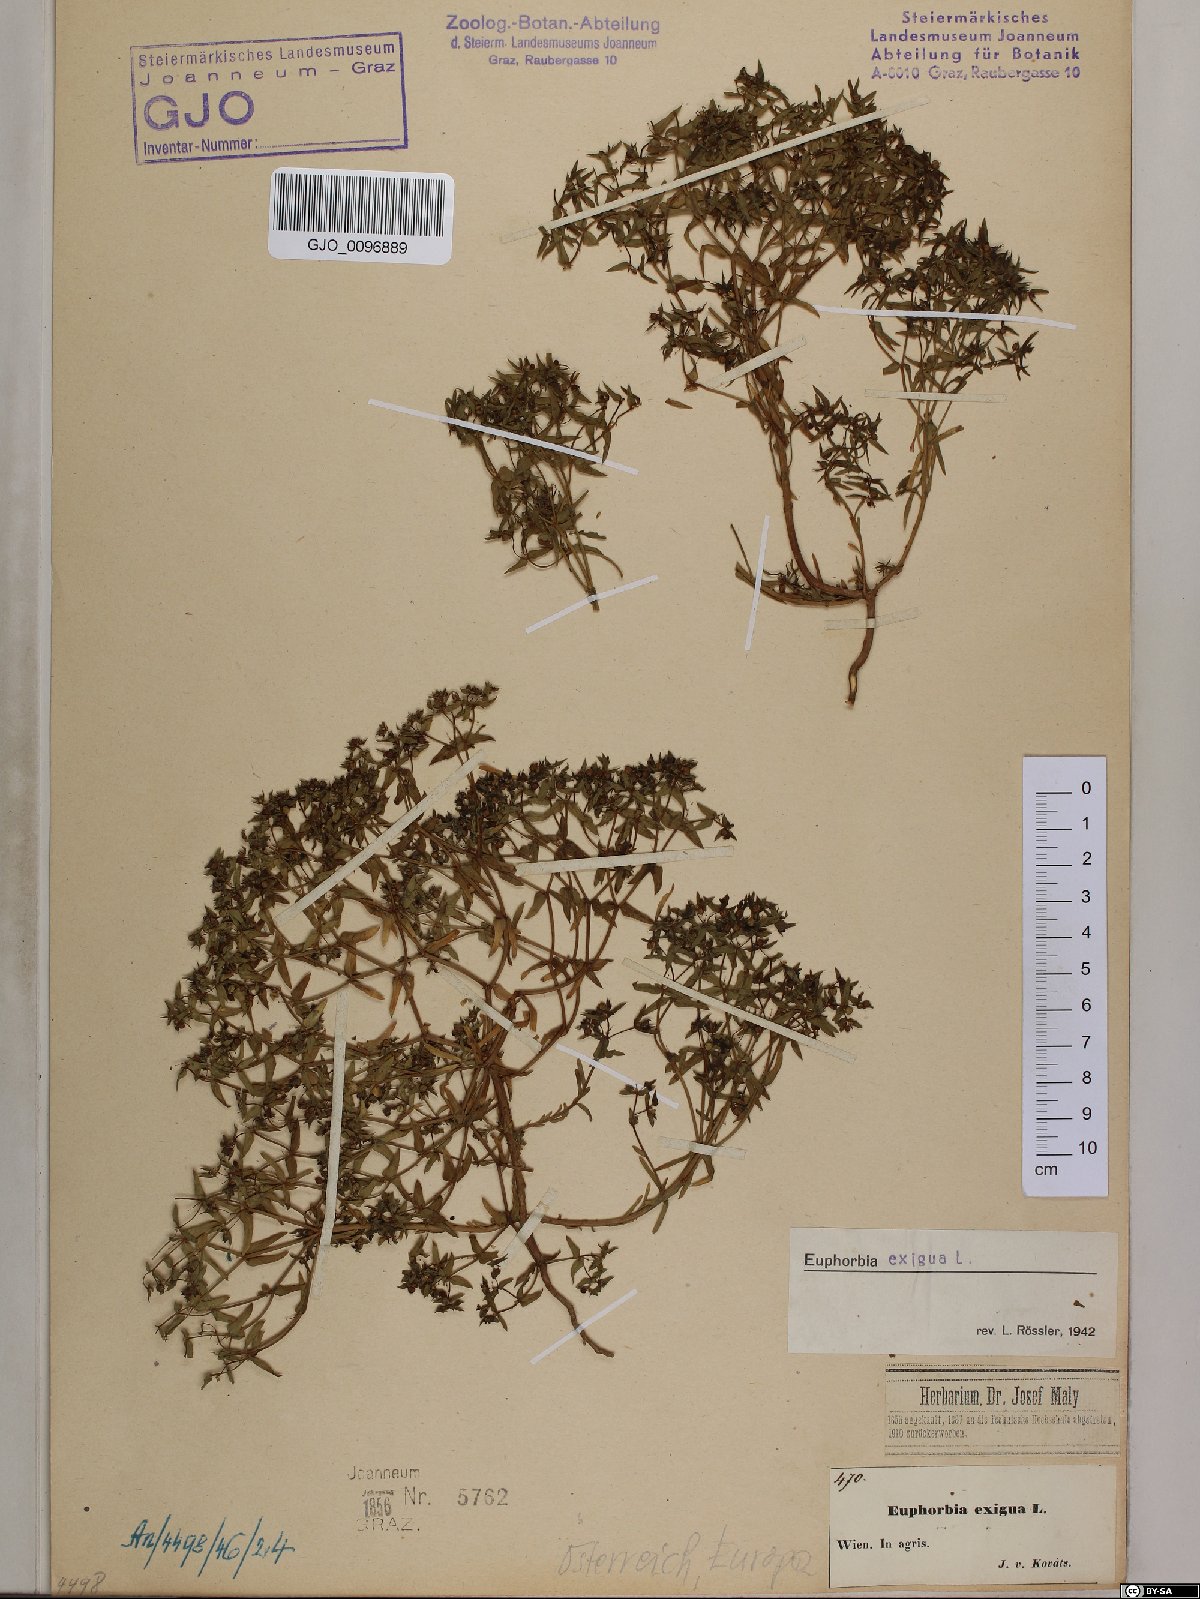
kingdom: Plantae
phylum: Tracheophyta
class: Magnoliopsida
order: Malpighiales
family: Euphorbiaceae
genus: Euphorbia
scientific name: Euphorbia exigua
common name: Dwarf spurge
